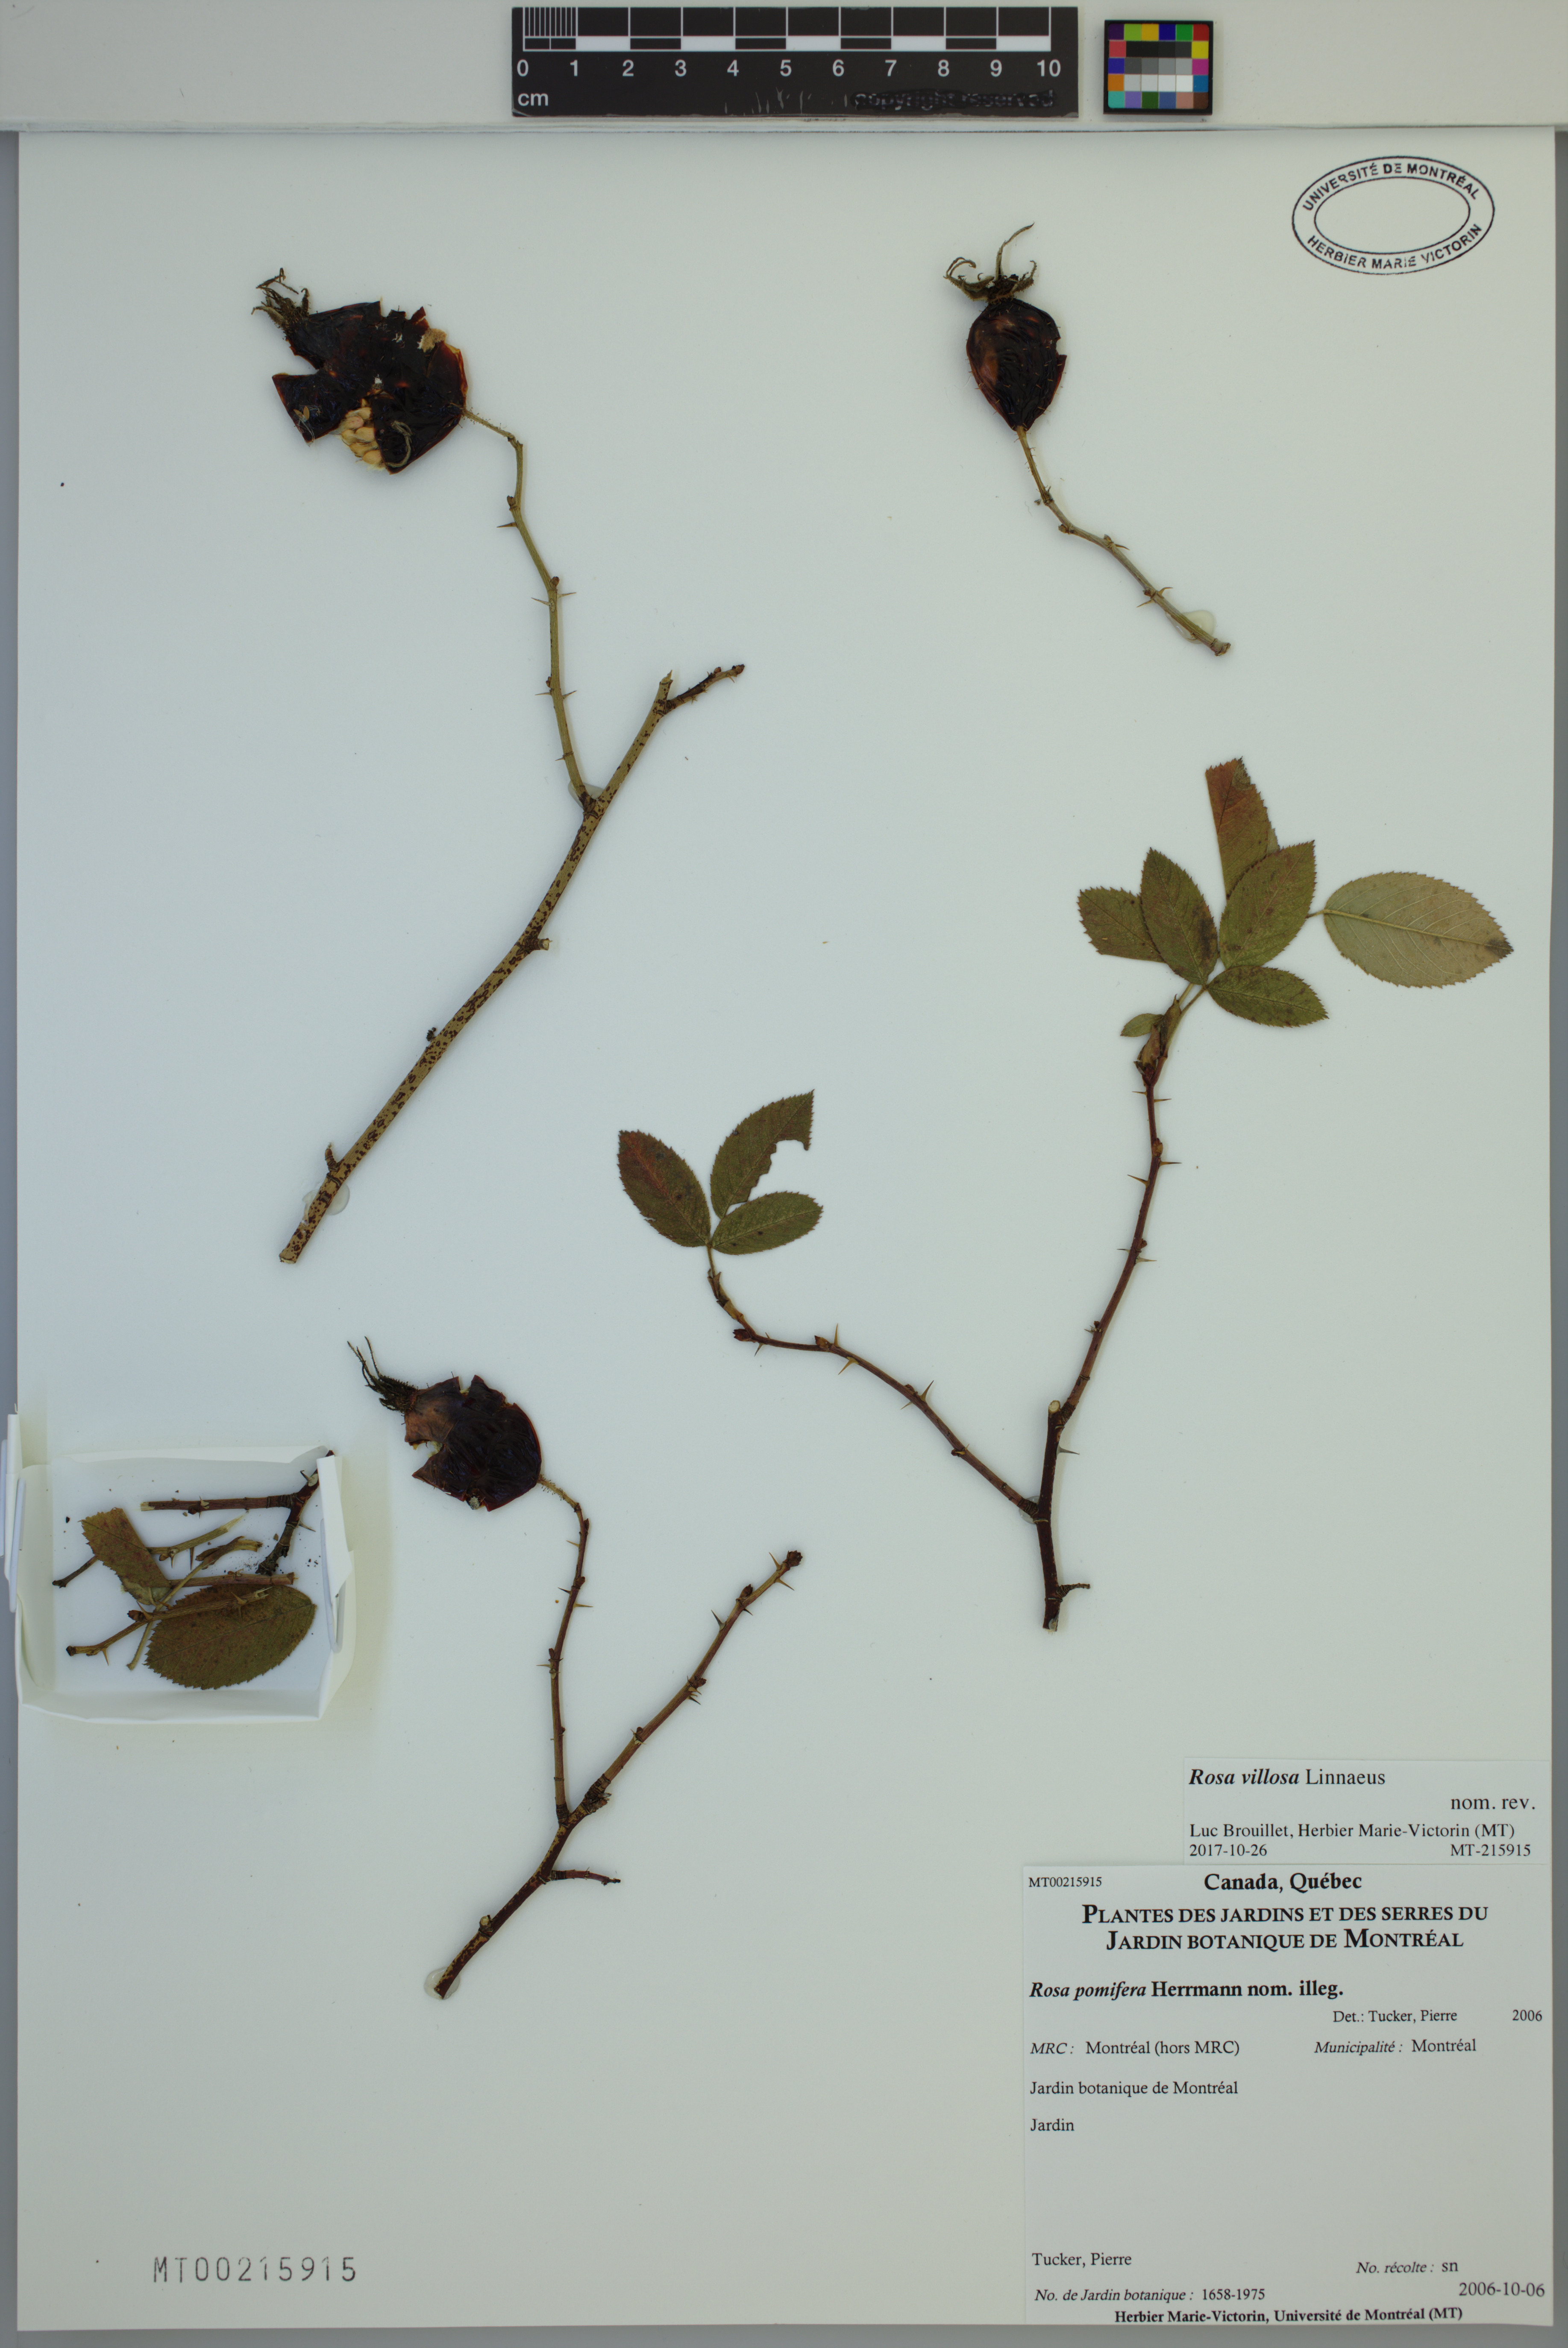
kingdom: Plantae
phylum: Tracheophyta
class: Magnoliopsida
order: Rosales
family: Rosaceae
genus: Rosa
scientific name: Rosa villosa
